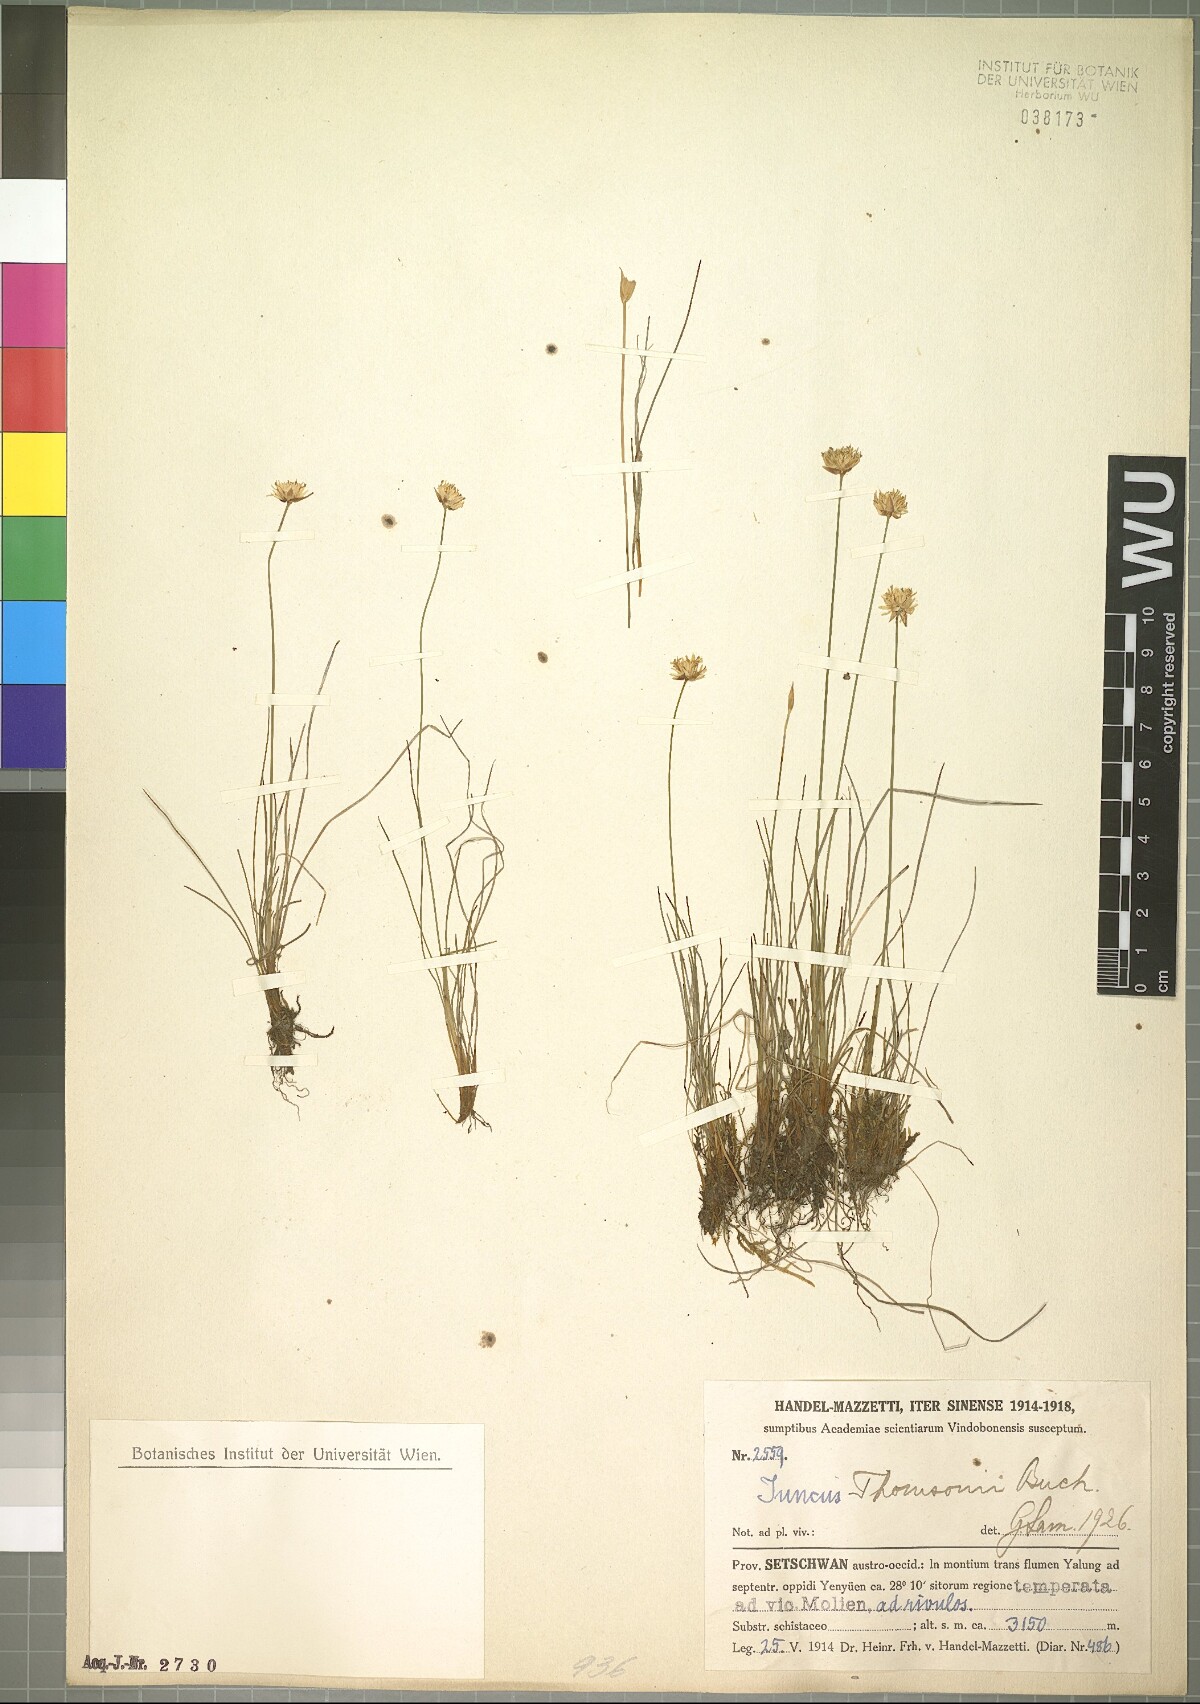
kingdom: Plantae
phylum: Tracheophyta
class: Liliopsida
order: Poales
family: Juncaceae
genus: Juncus
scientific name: Juncus thomsonii
